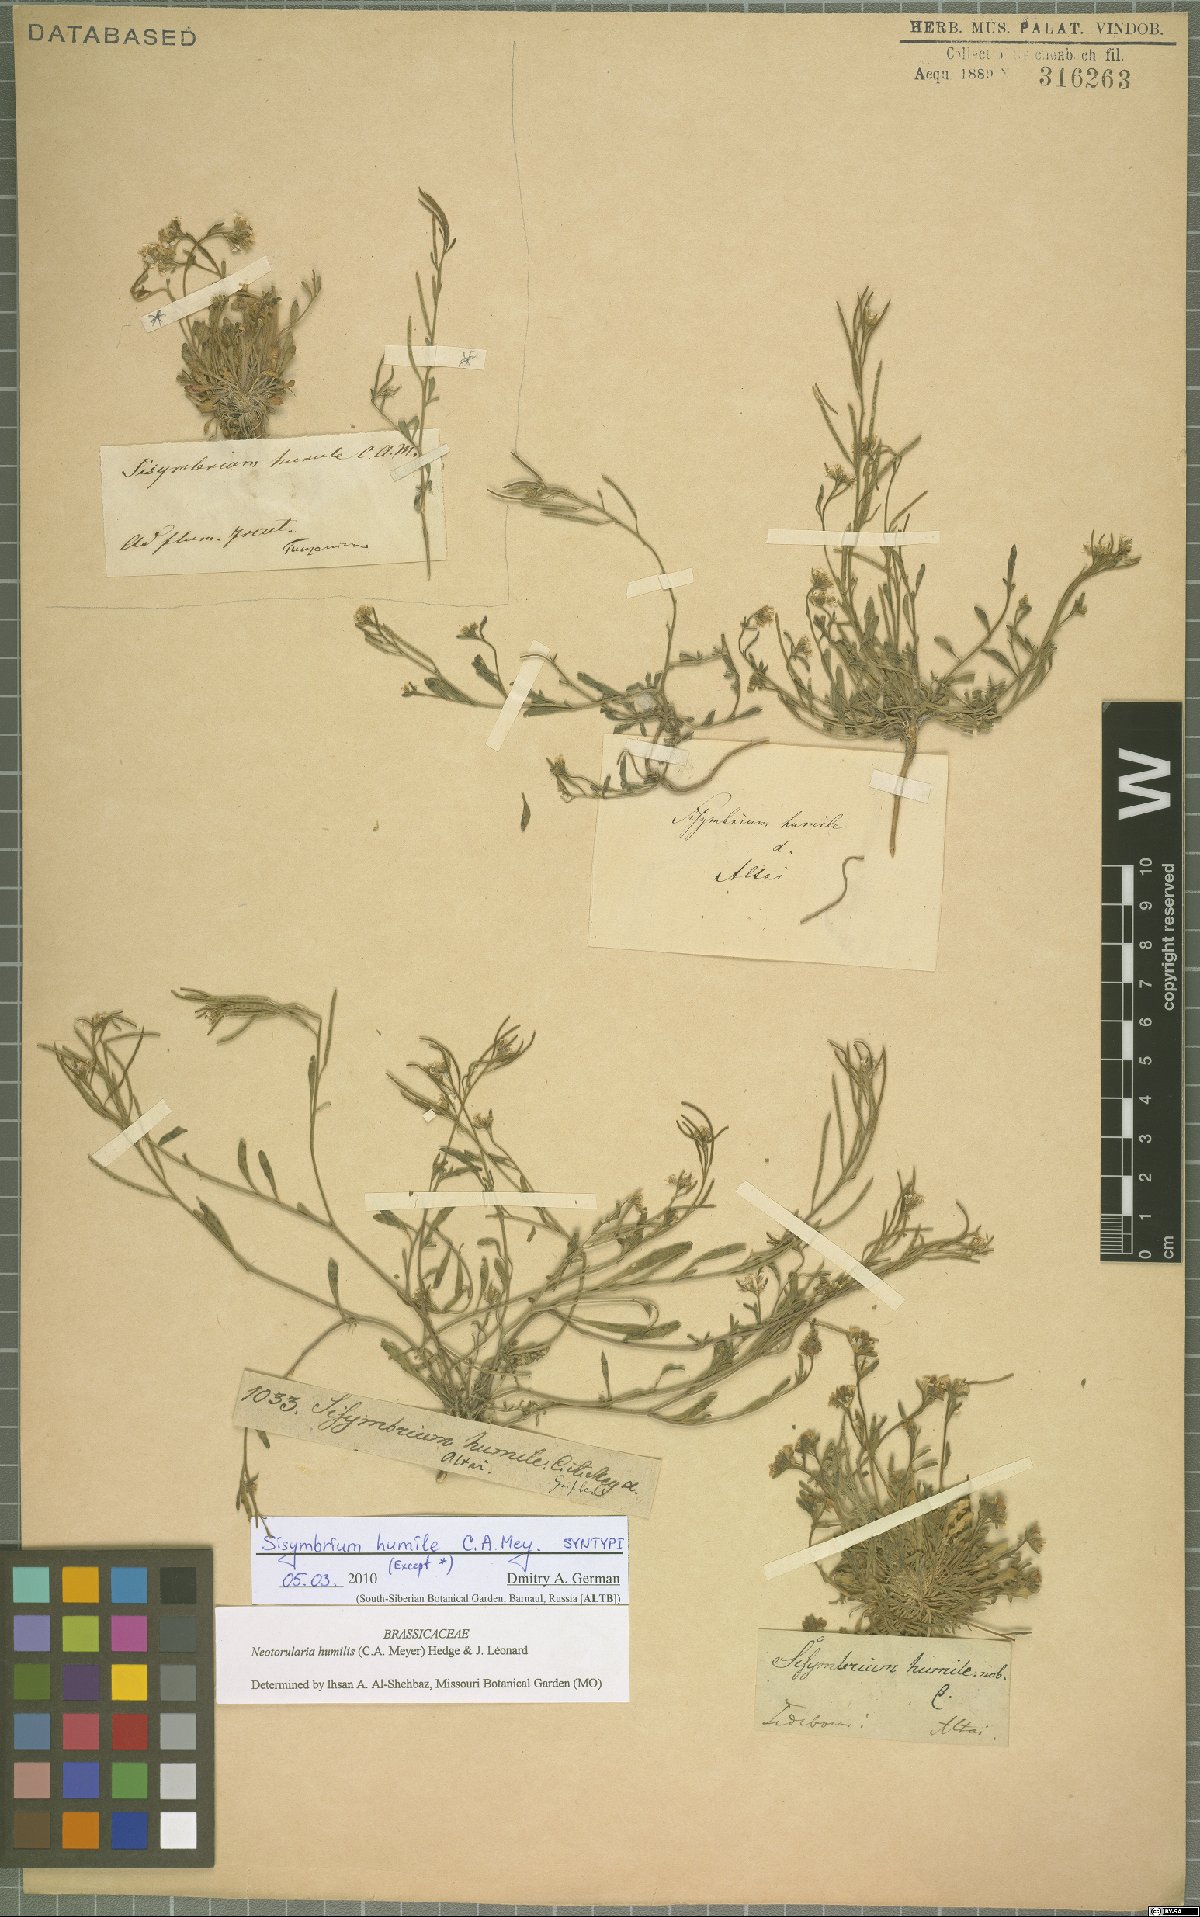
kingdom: Plantae
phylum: Tracheophyta
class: Magnoliopsida
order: Brassicales
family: Brassicaceae
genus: Braya
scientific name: Braya humilis
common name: Alpine northern rockcress
